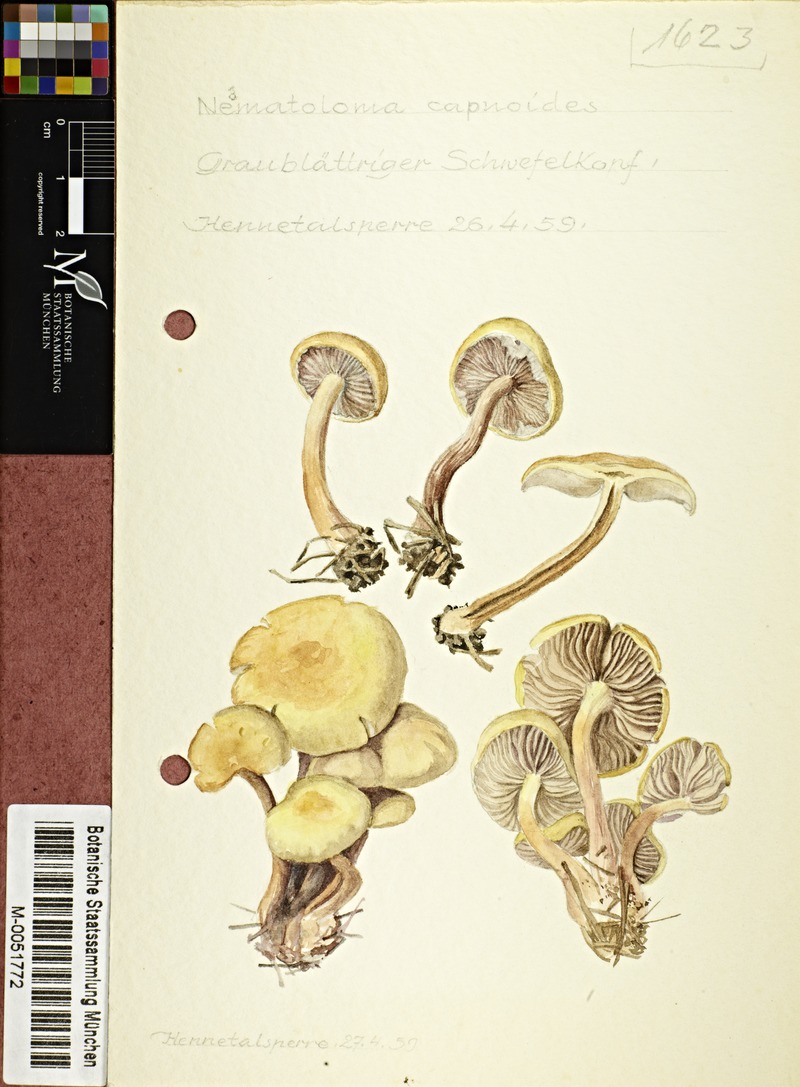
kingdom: Fungi
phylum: Basidiomycota
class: Agaricomycetes
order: Agaricales
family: Strophariaceae
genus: Hypholoma
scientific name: Hypholoma capnoides
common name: Conifer tuft
